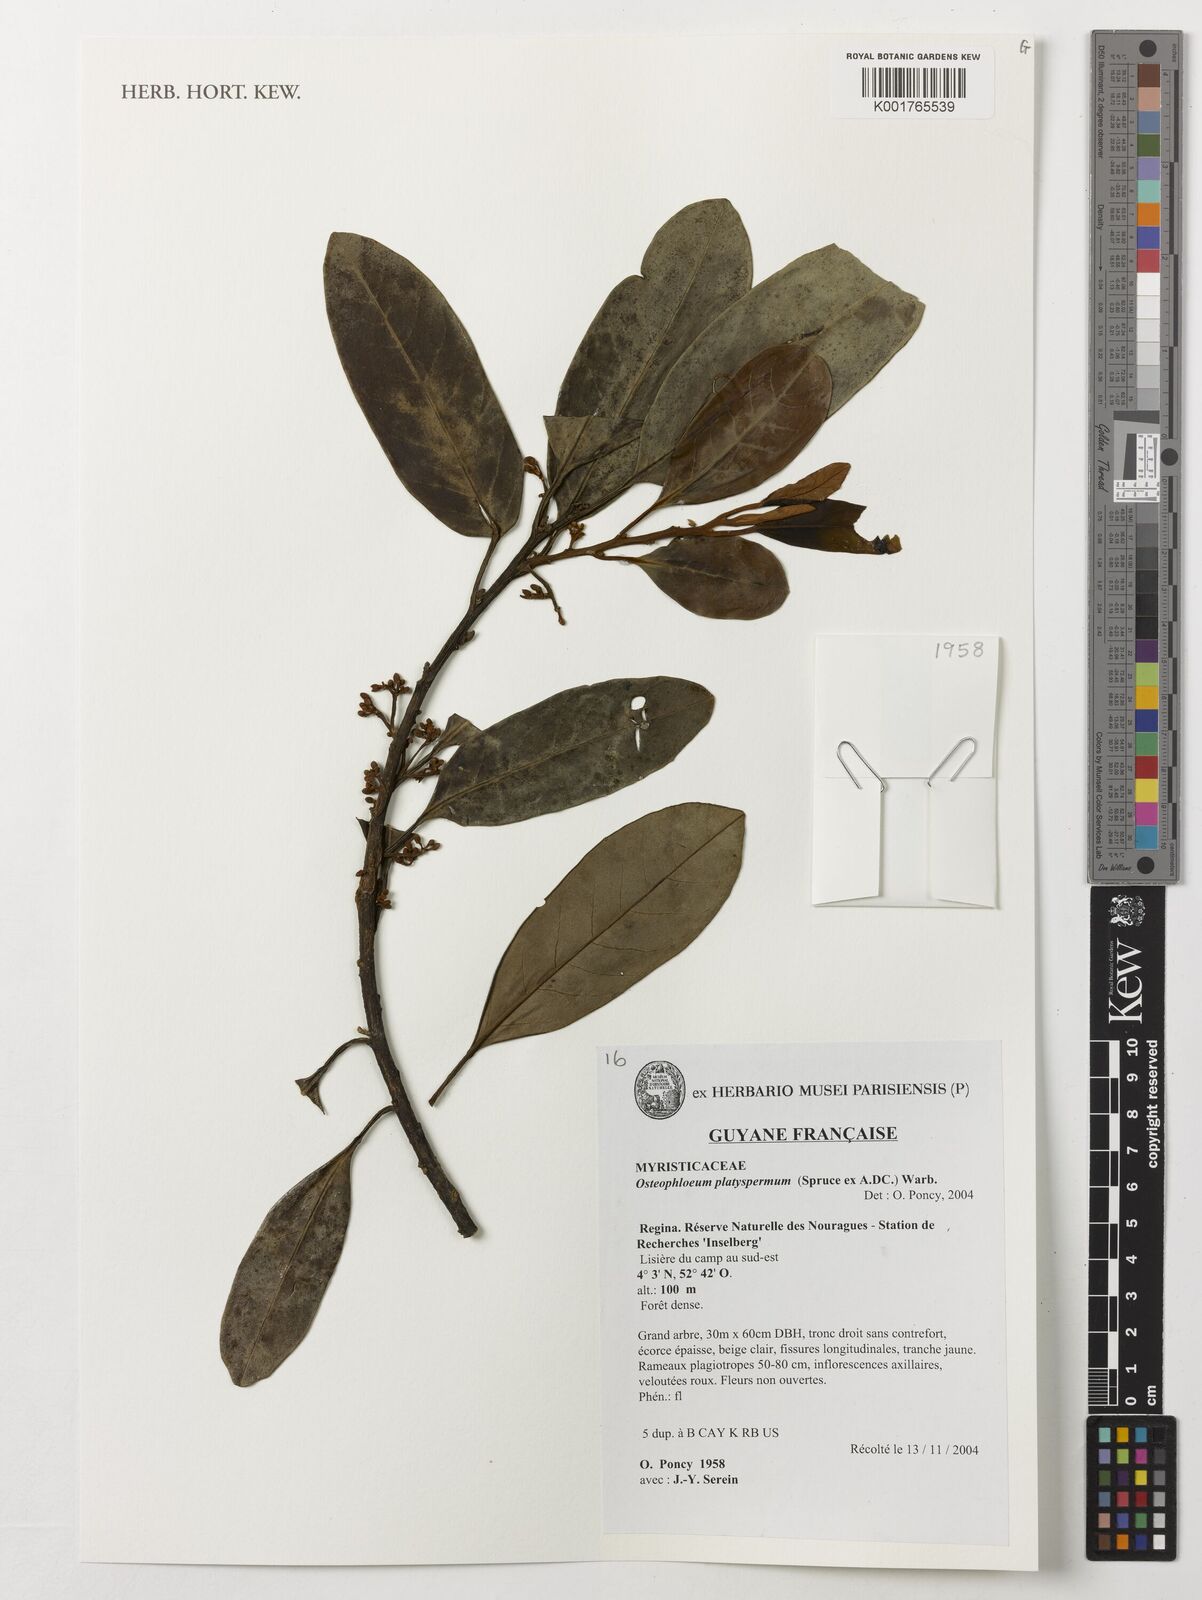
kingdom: Plantae
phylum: Tracheophyta
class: Magnoliopsida
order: Magnoliales
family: Myristicaceae
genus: Osteophloeum
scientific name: Osteophloeum platyspermum
